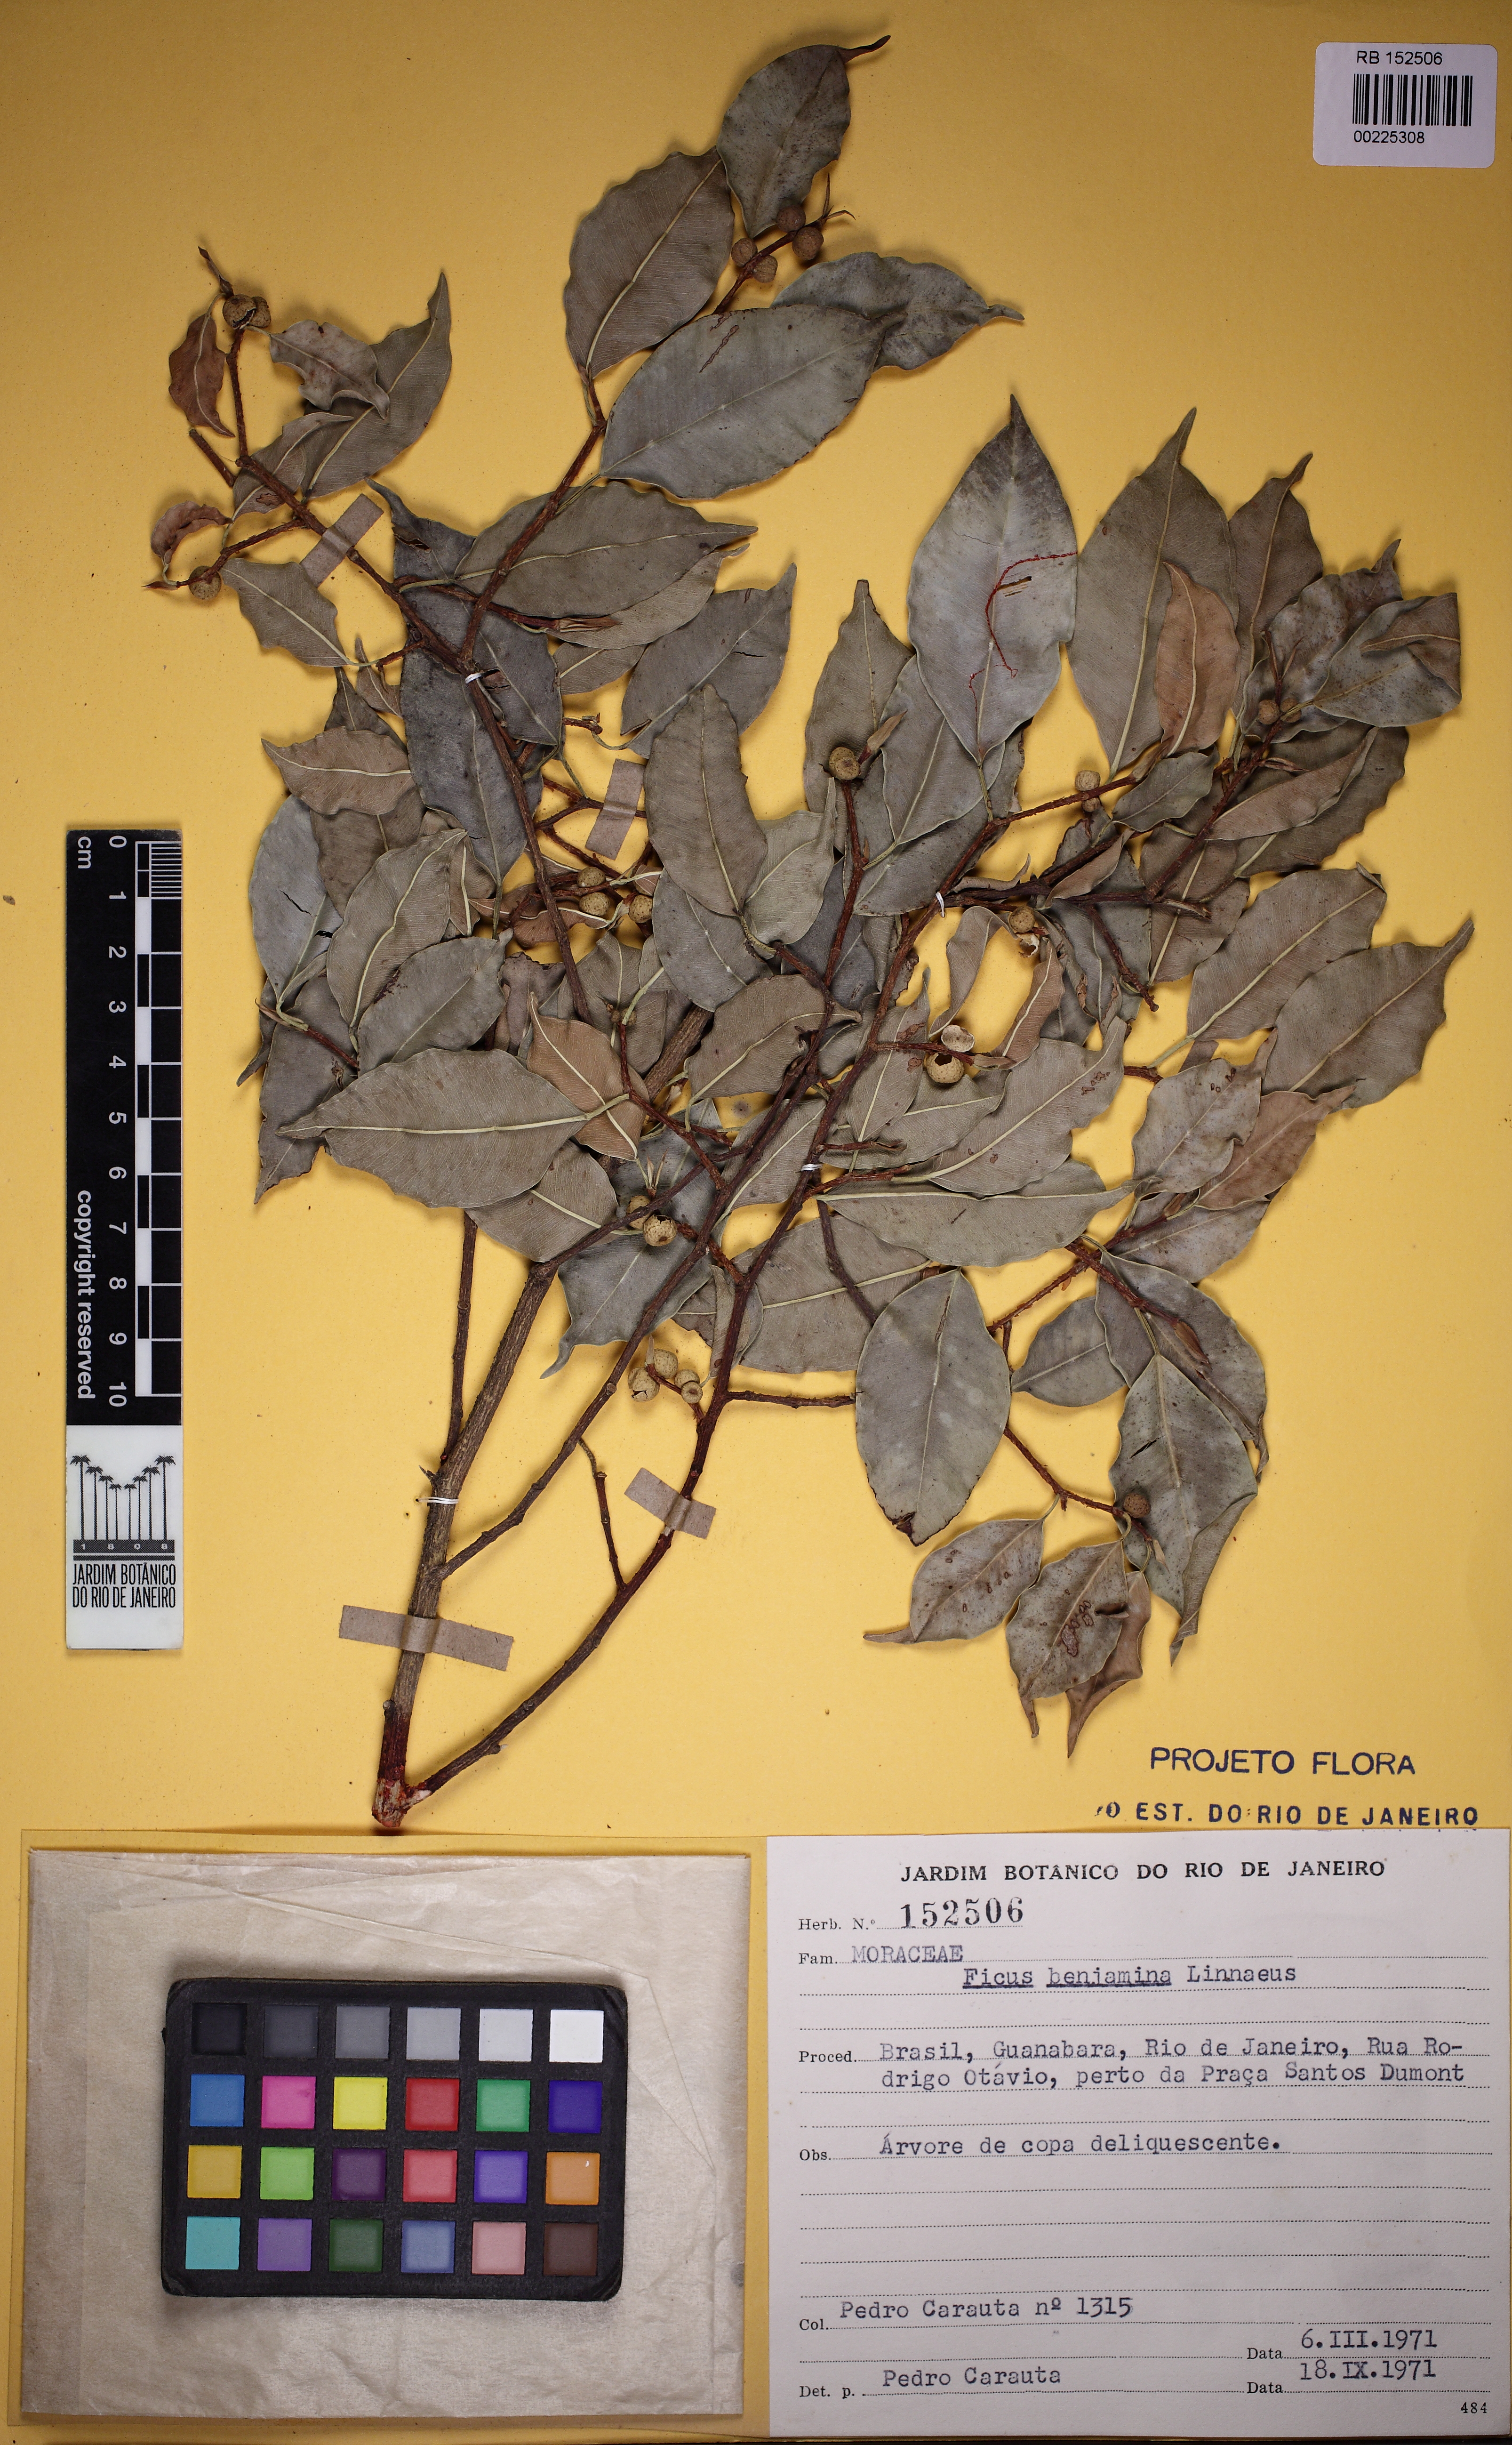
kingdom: Plantae
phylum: Tracheophyta
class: Magnoliopsida
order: Rosales
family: Moraceae
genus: Ficus
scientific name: Ficus benjamina
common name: Weeping fig
